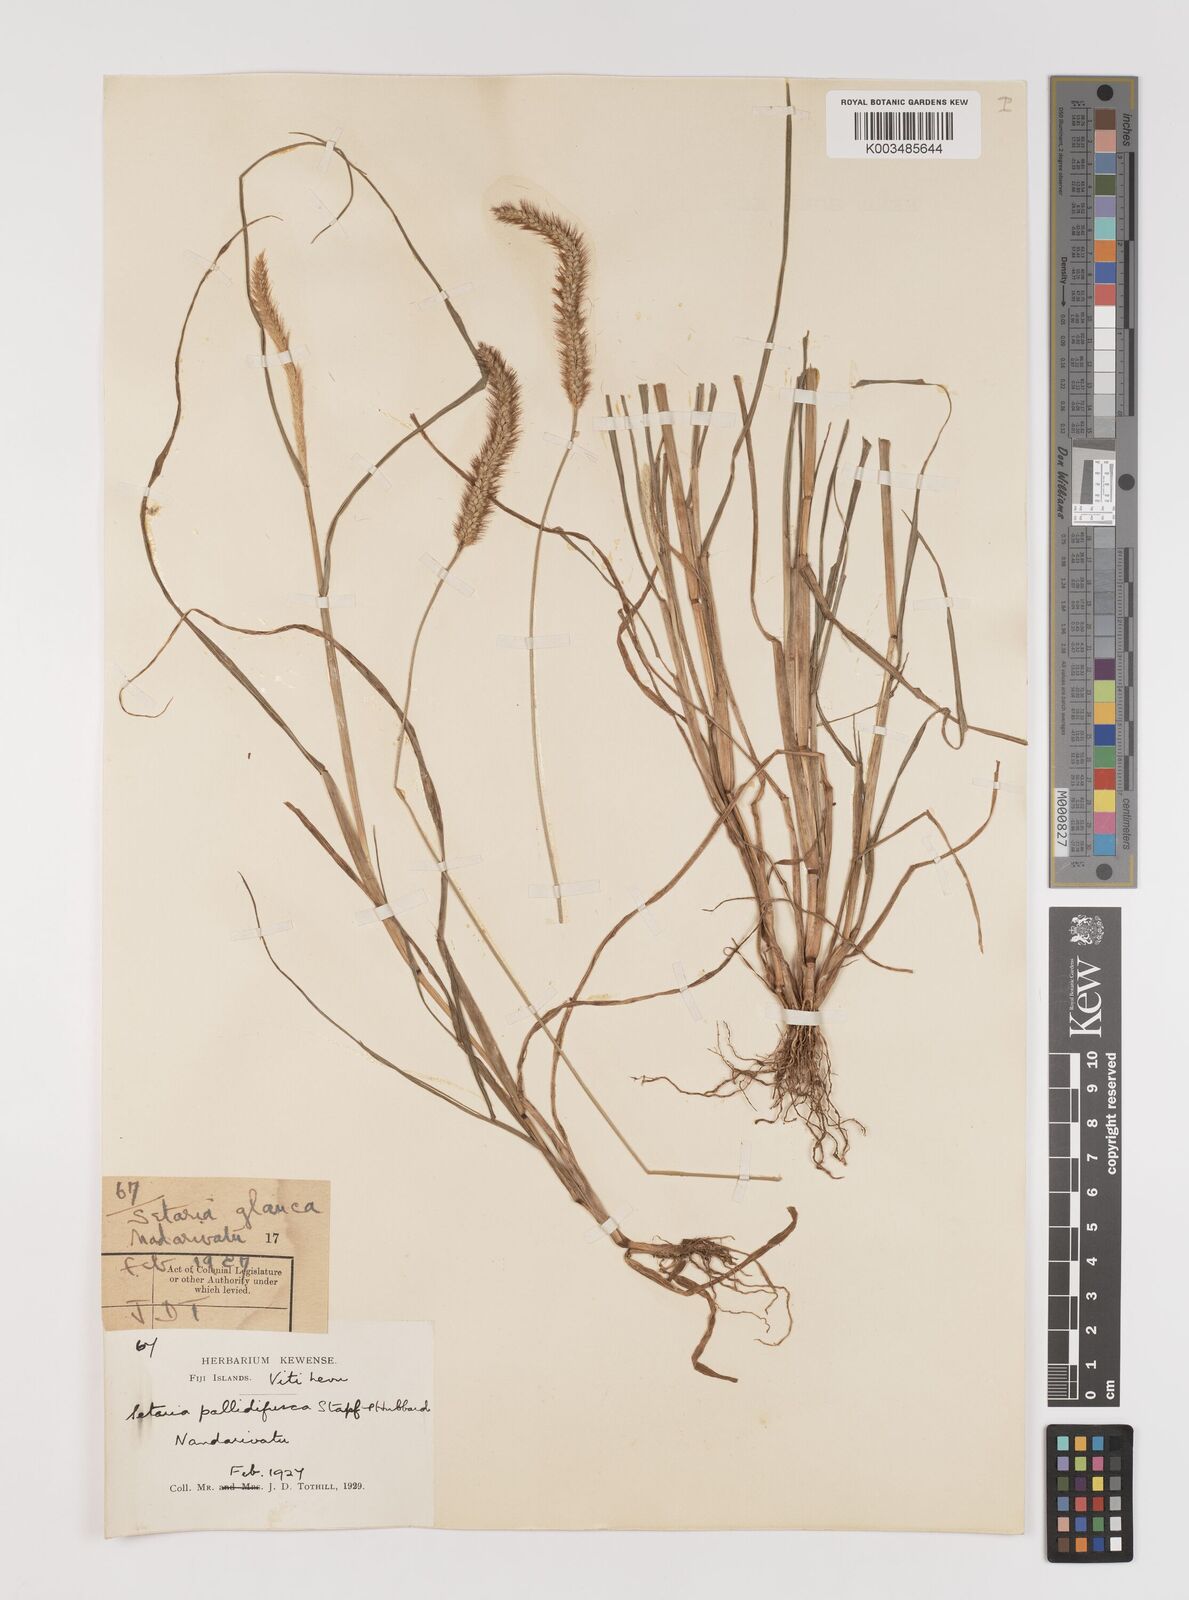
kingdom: Plantae
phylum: Tracheophyta
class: Liliopsida
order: Poales
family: Poaceae
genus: Setaria
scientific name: Setaria pumila
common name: Yellow bristle-grass
